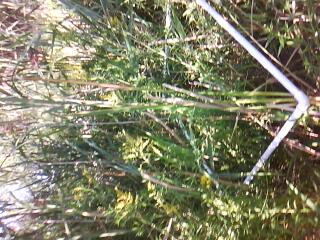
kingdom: Plantae
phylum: Tracheophyta
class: Magnoliopsida
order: Asterales
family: Asteraceae
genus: Solidago
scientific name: Solidago canadensis
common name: Canada goldenrod
